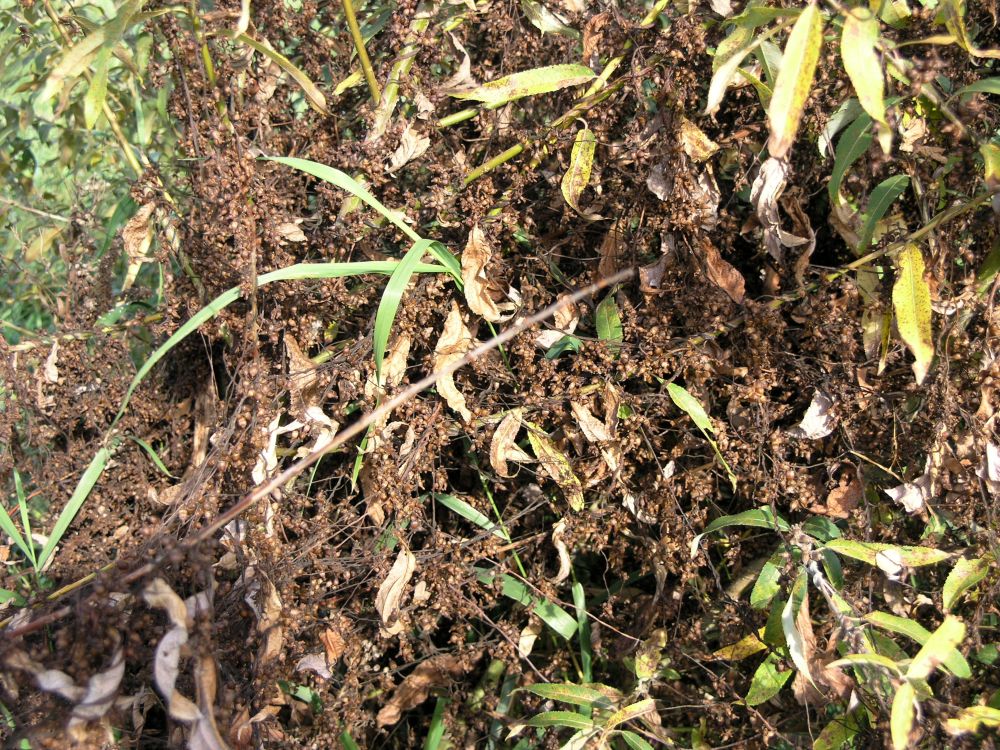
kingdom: Plantae
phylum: Tracheophyta
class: Magnoliopsida
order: Solanales
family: Convolvulaceae
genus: Cuscuta
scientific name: Cuscuta lupuliformis
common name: Hop dodder
